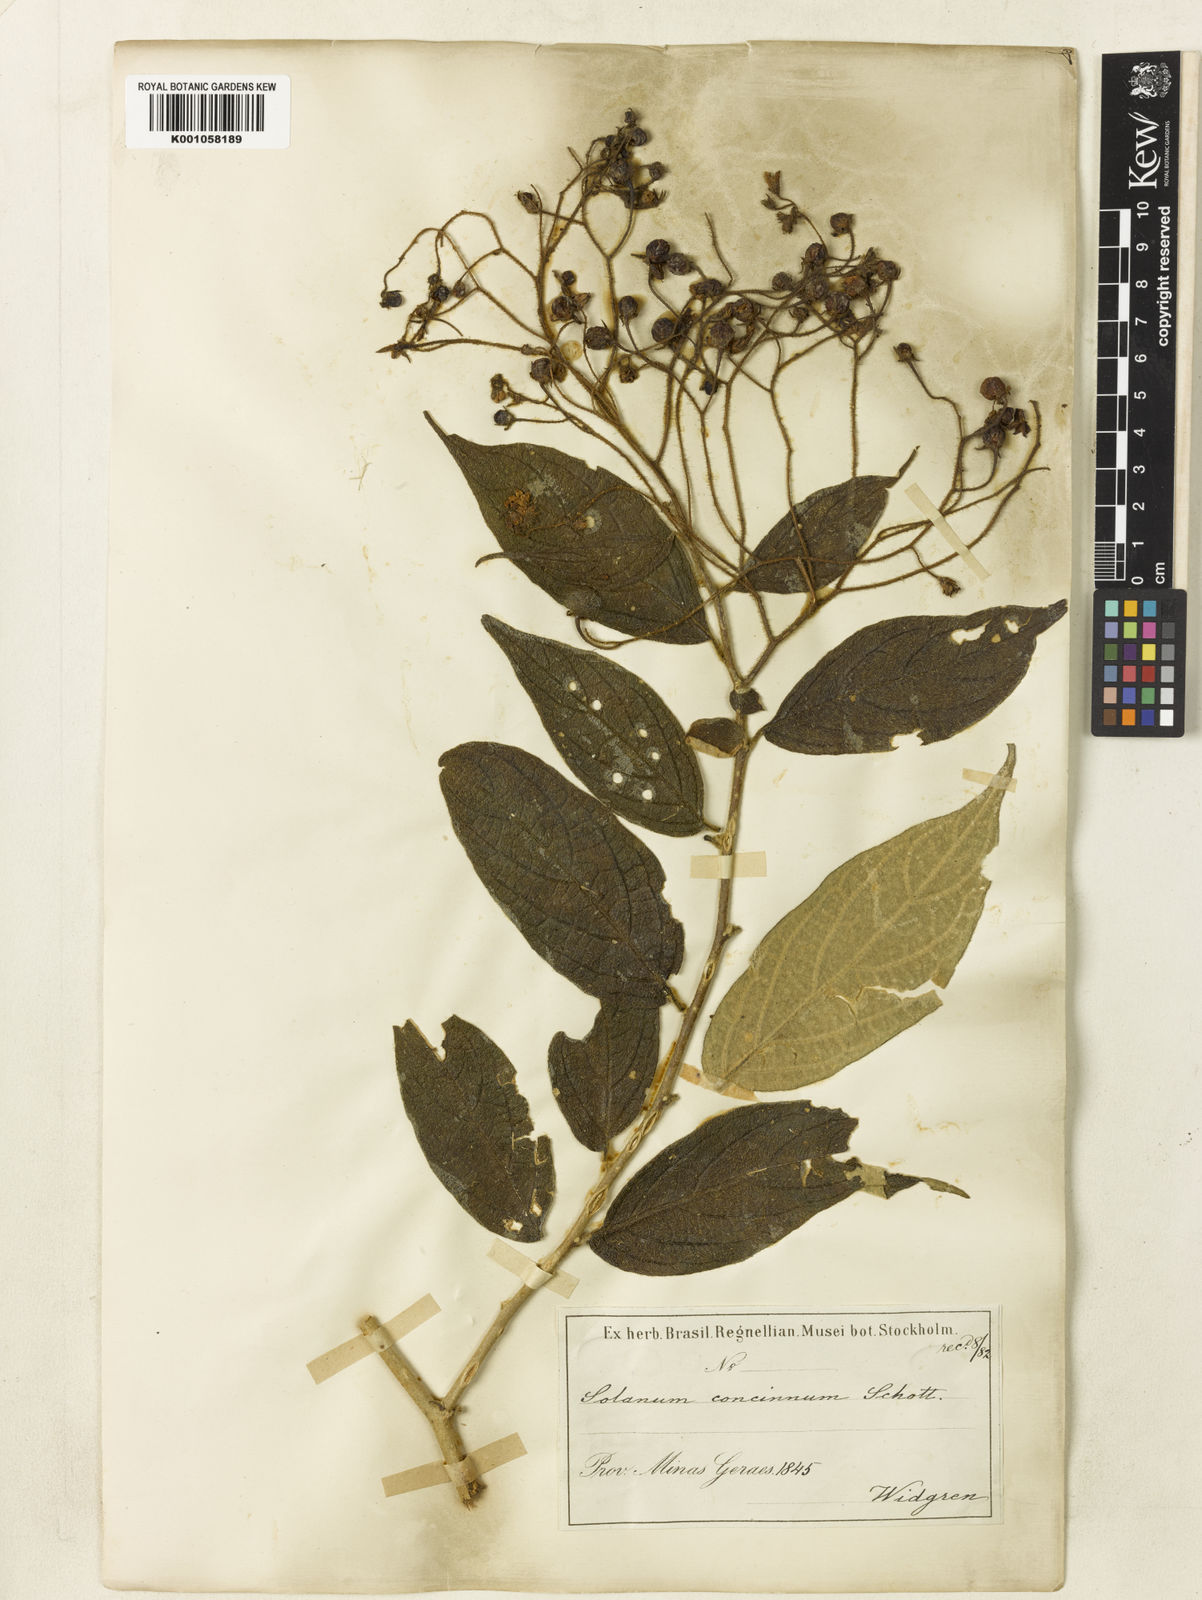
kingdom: Plantae
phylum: Tracheophyta
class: Magnoliopsida
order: Solanales
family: Solanaceae
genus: Solanum
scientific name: Solanum concinnum
